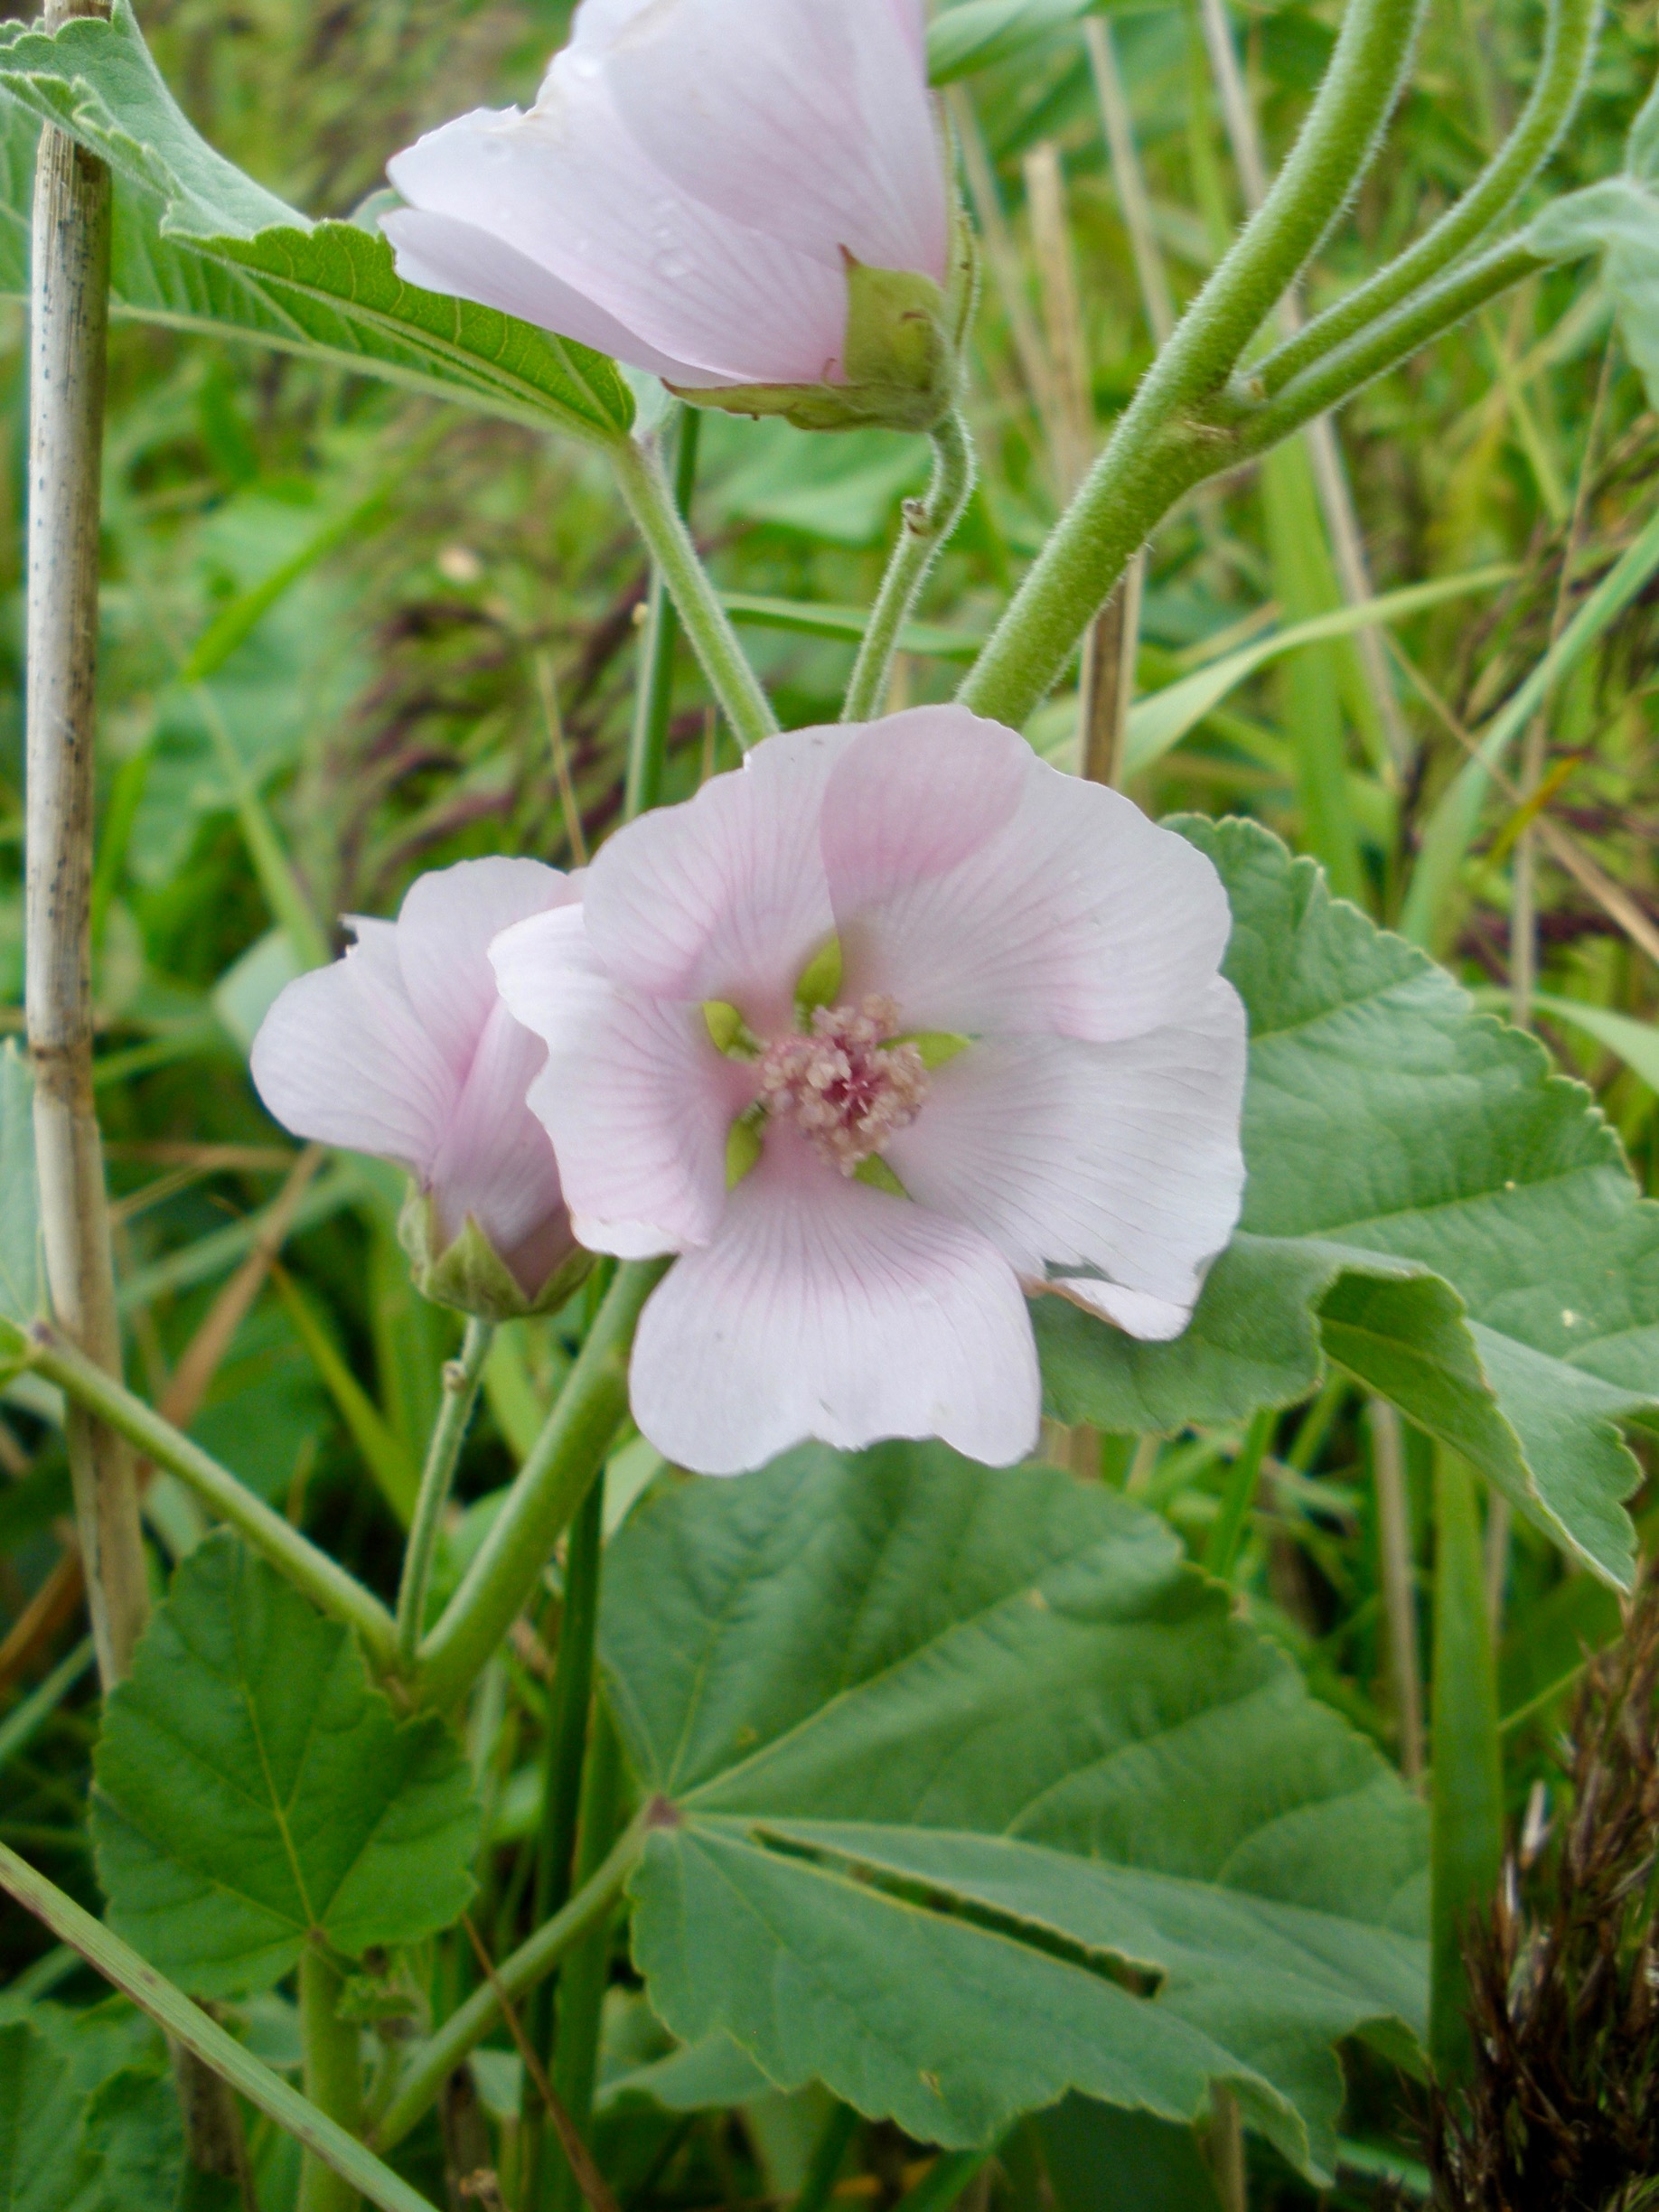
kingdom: Plantae
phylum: Tracheophyta
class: Magnoliopsida
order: Malvales
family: Malvaceae
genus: Althaea
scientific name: Althaea officinalis
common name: Lægestokrose
